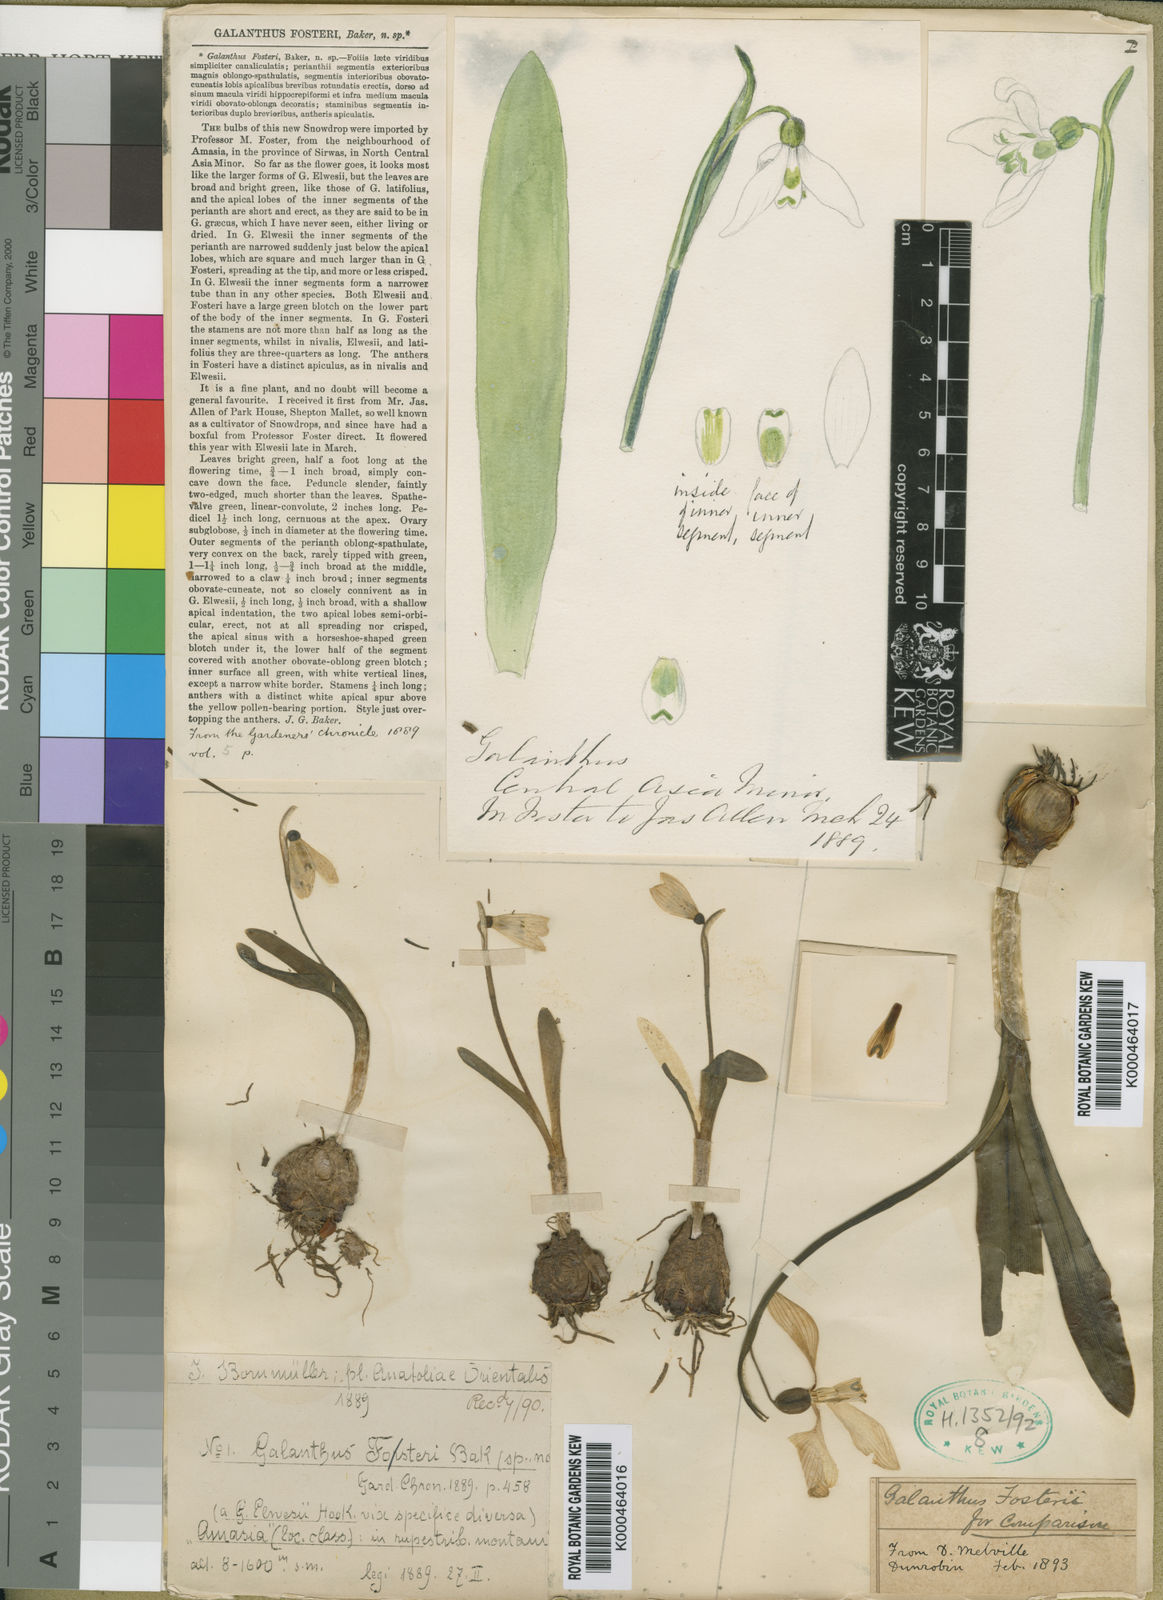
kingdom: Plantae
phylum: Tracheophyta
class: Liliopsida
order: Asparagales
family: Amaryllidaceae
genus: Galanthus
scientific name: Galanthus fosteri
